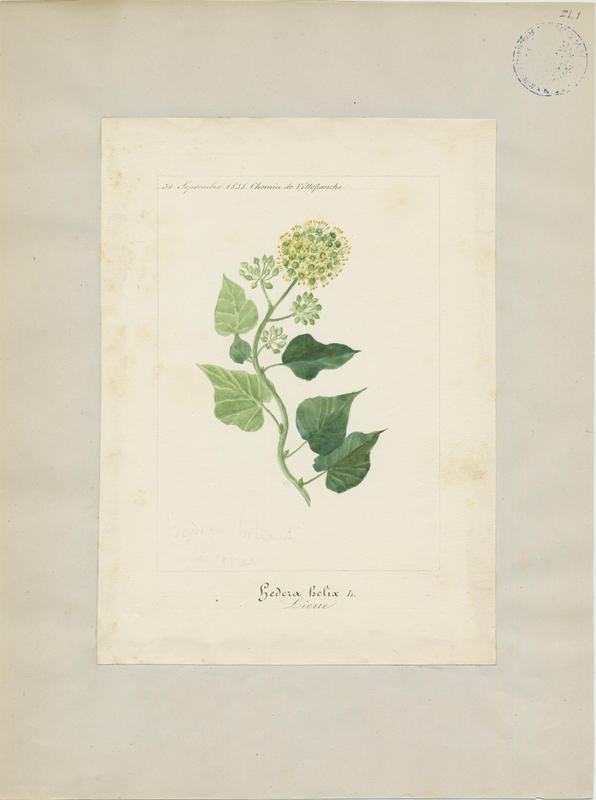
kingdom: Plantae
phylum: Tracheophyta
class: Magnoliopsida
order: Apiales
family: Araliaceae
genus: Hedera
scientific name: Hedera helix
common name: Ivy
